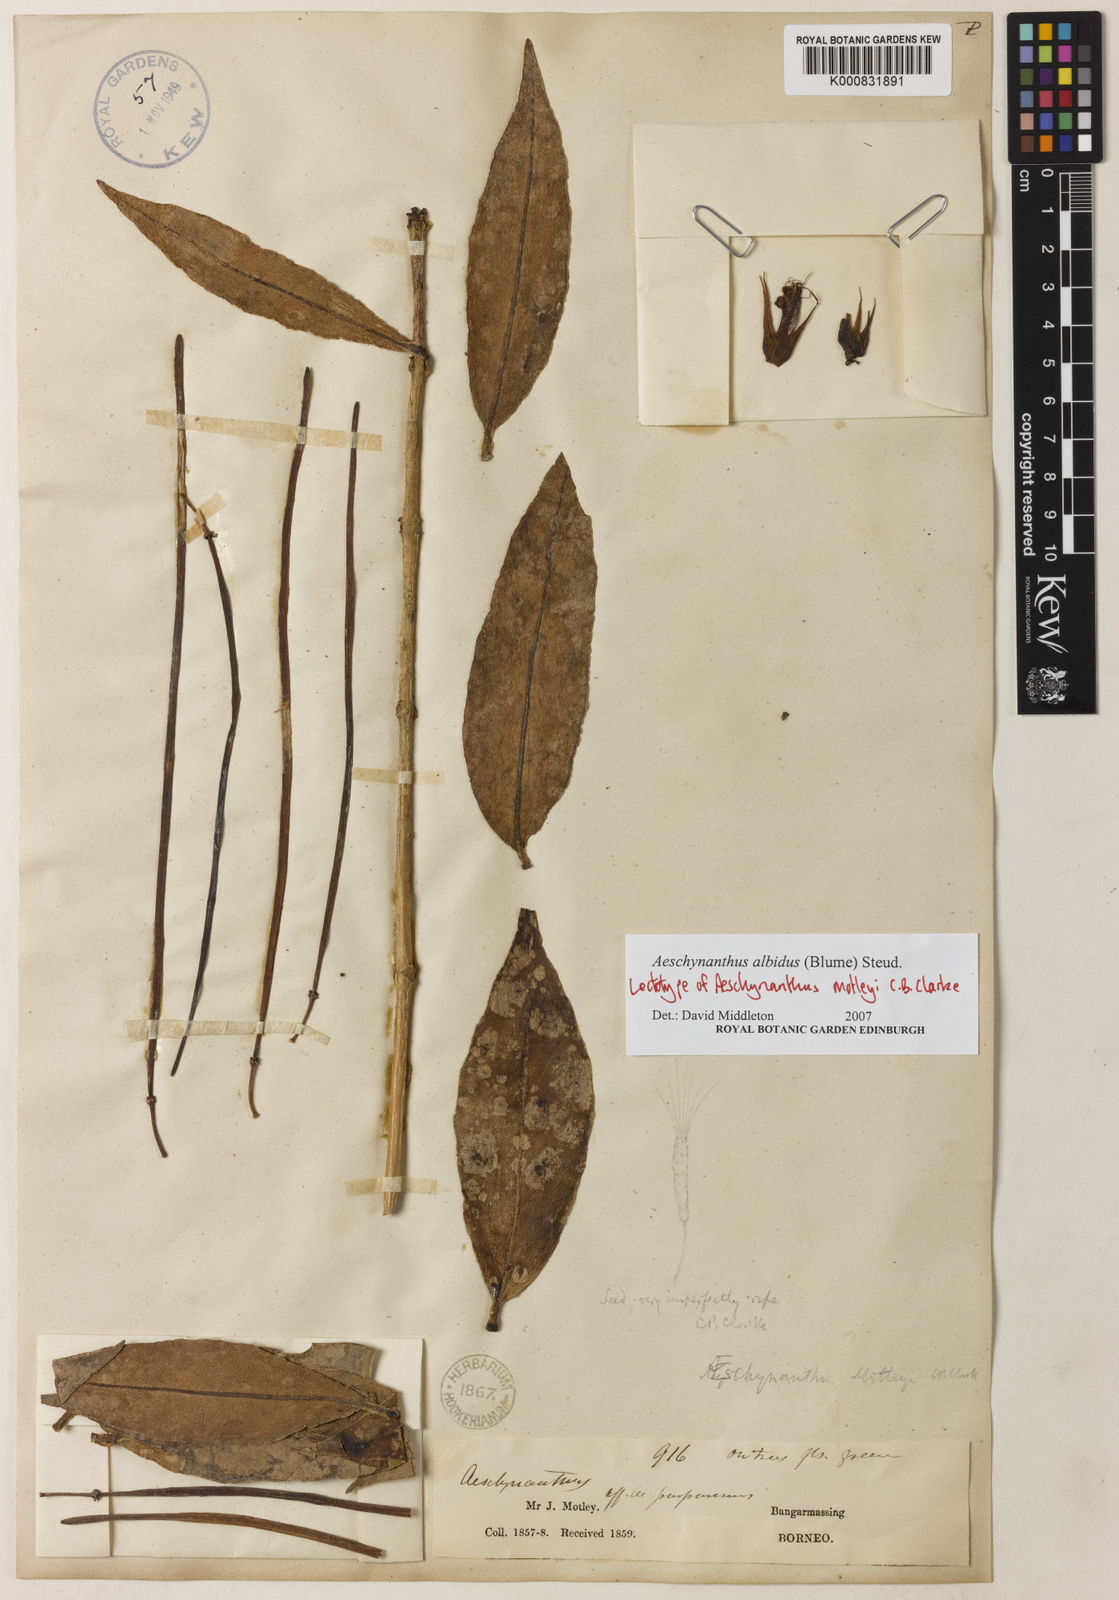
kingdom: Plantae
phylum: Tracheophyta
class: Magnoliopsida
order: Lamiales
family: Gesneriaceae
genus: Aeschynanthus
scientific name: Aeschynanthus albidus
